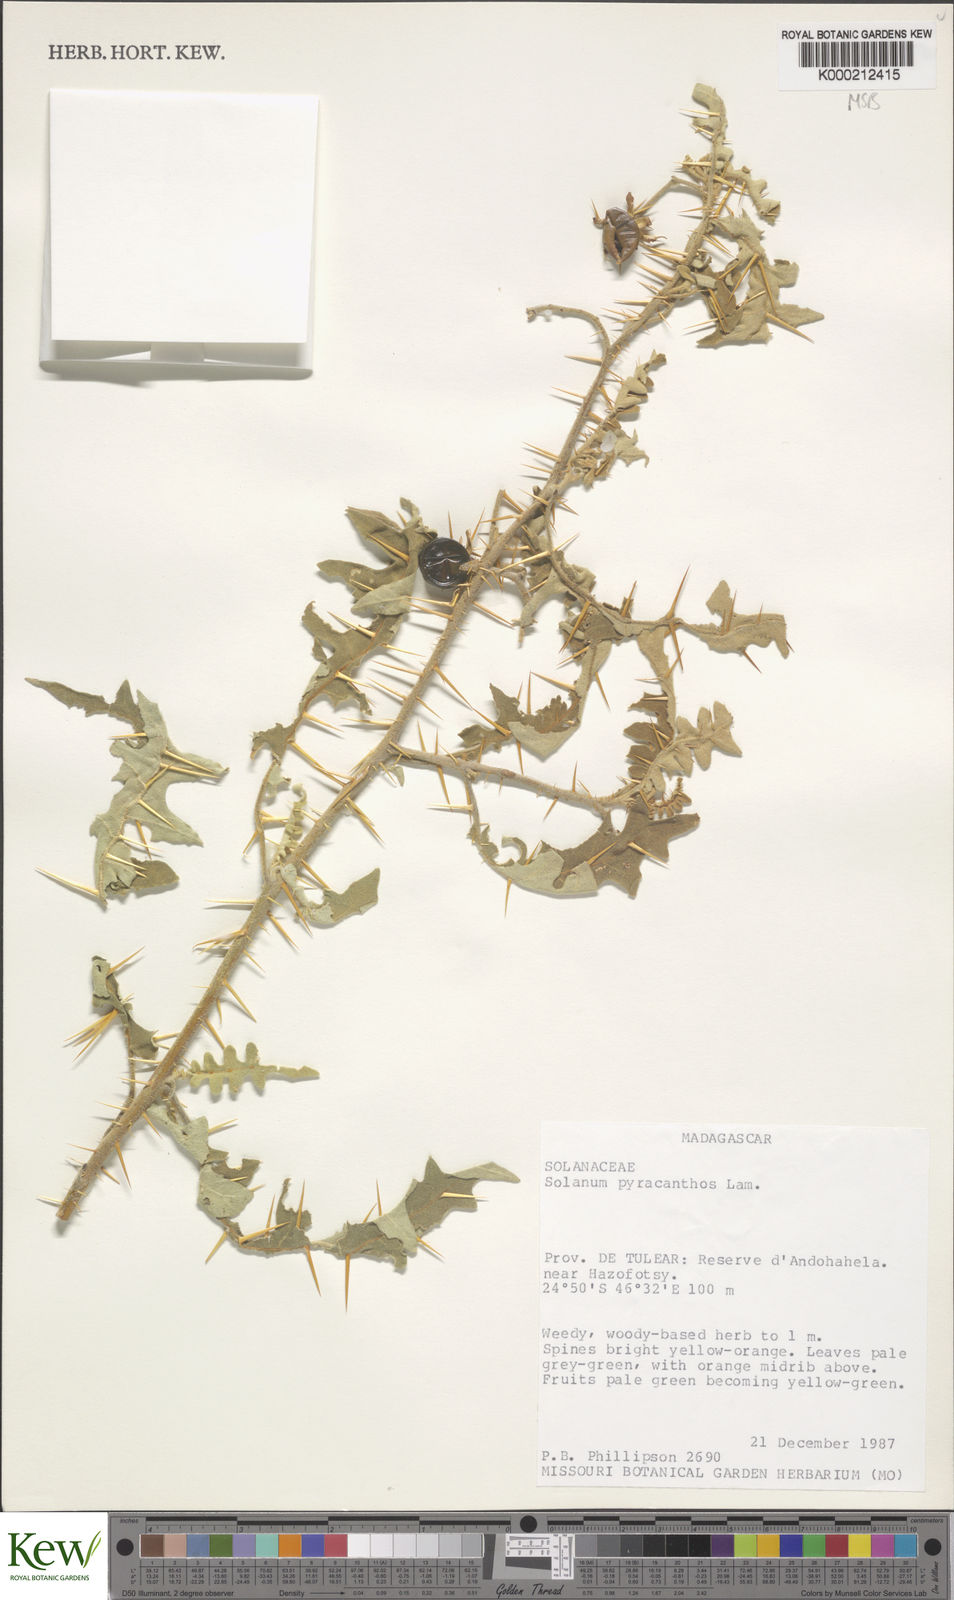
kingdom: Plantae
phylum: Tracheophyta
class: Magnoliopsida
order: Solanales
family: Solanaceae
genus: Solanum
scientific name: Solanum pyracanthos
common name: Porcupine-tomato
